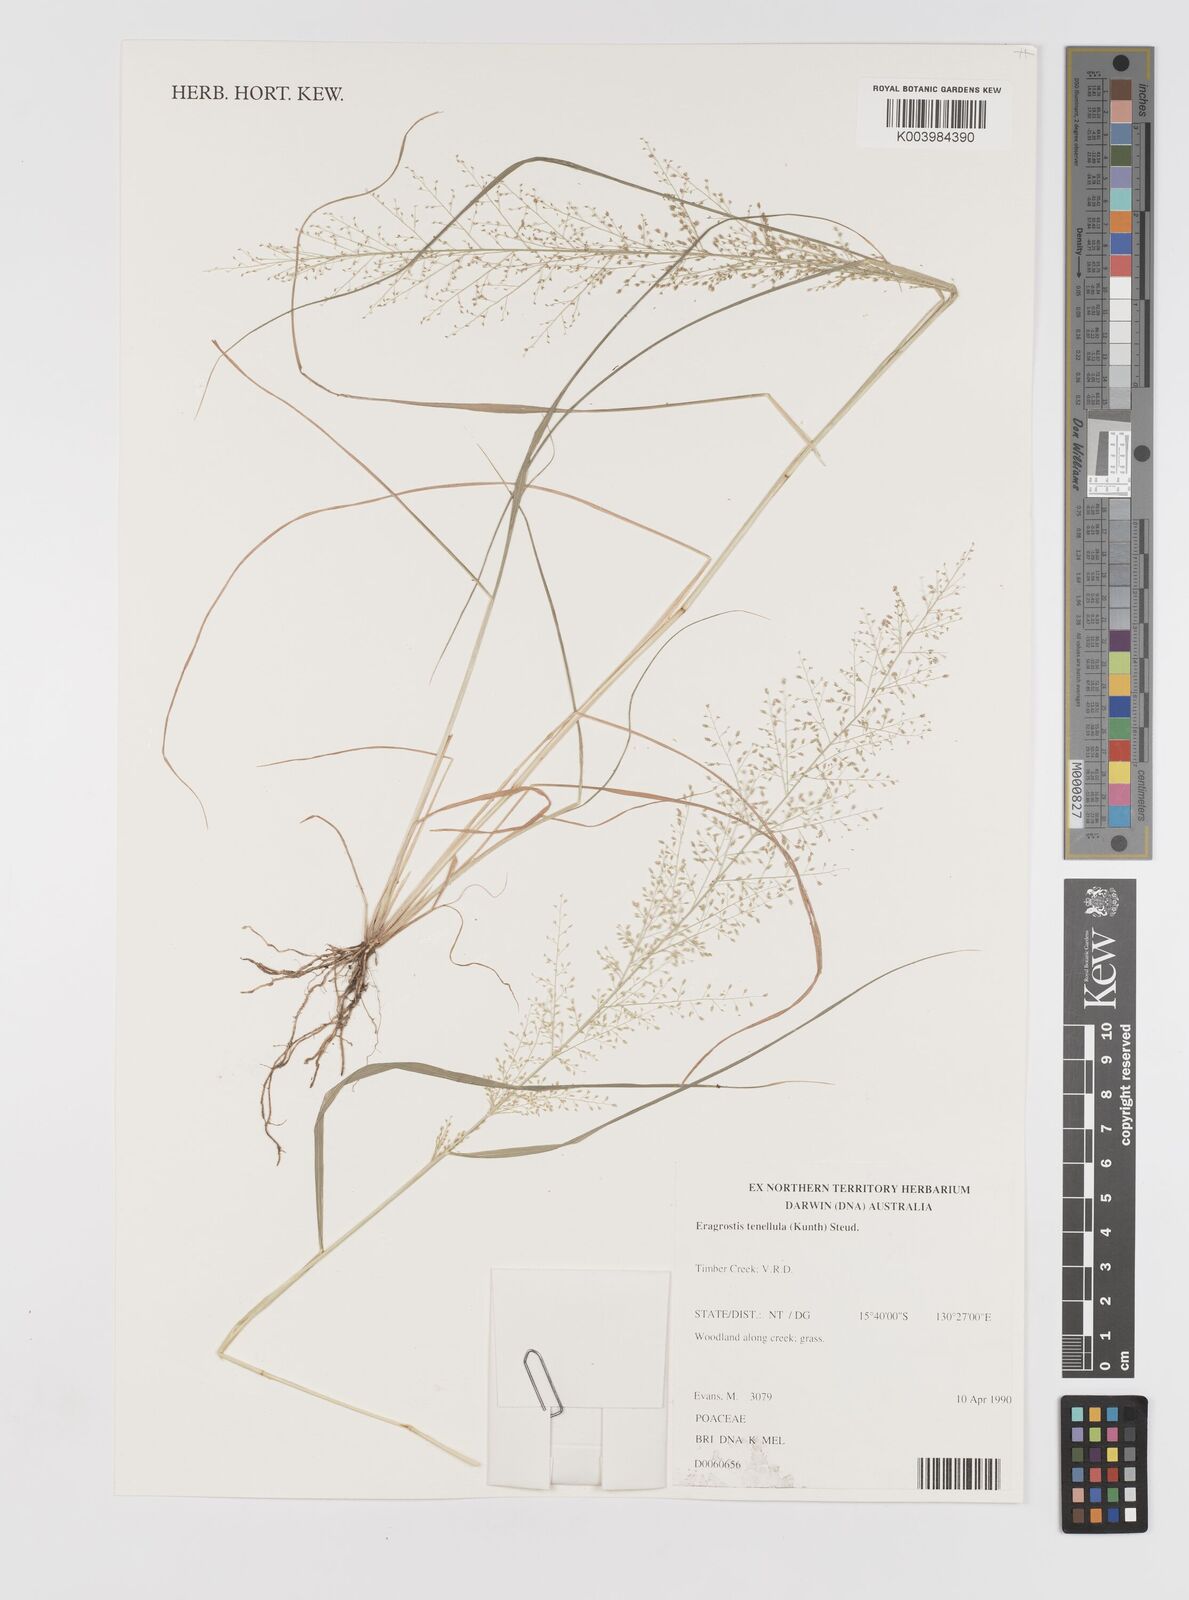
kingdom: Plantae
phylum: Tracheophyta
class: Liliopsida
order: Poales
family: Poaceae
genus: Eragrostis
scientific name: Eragrostis tenellula
